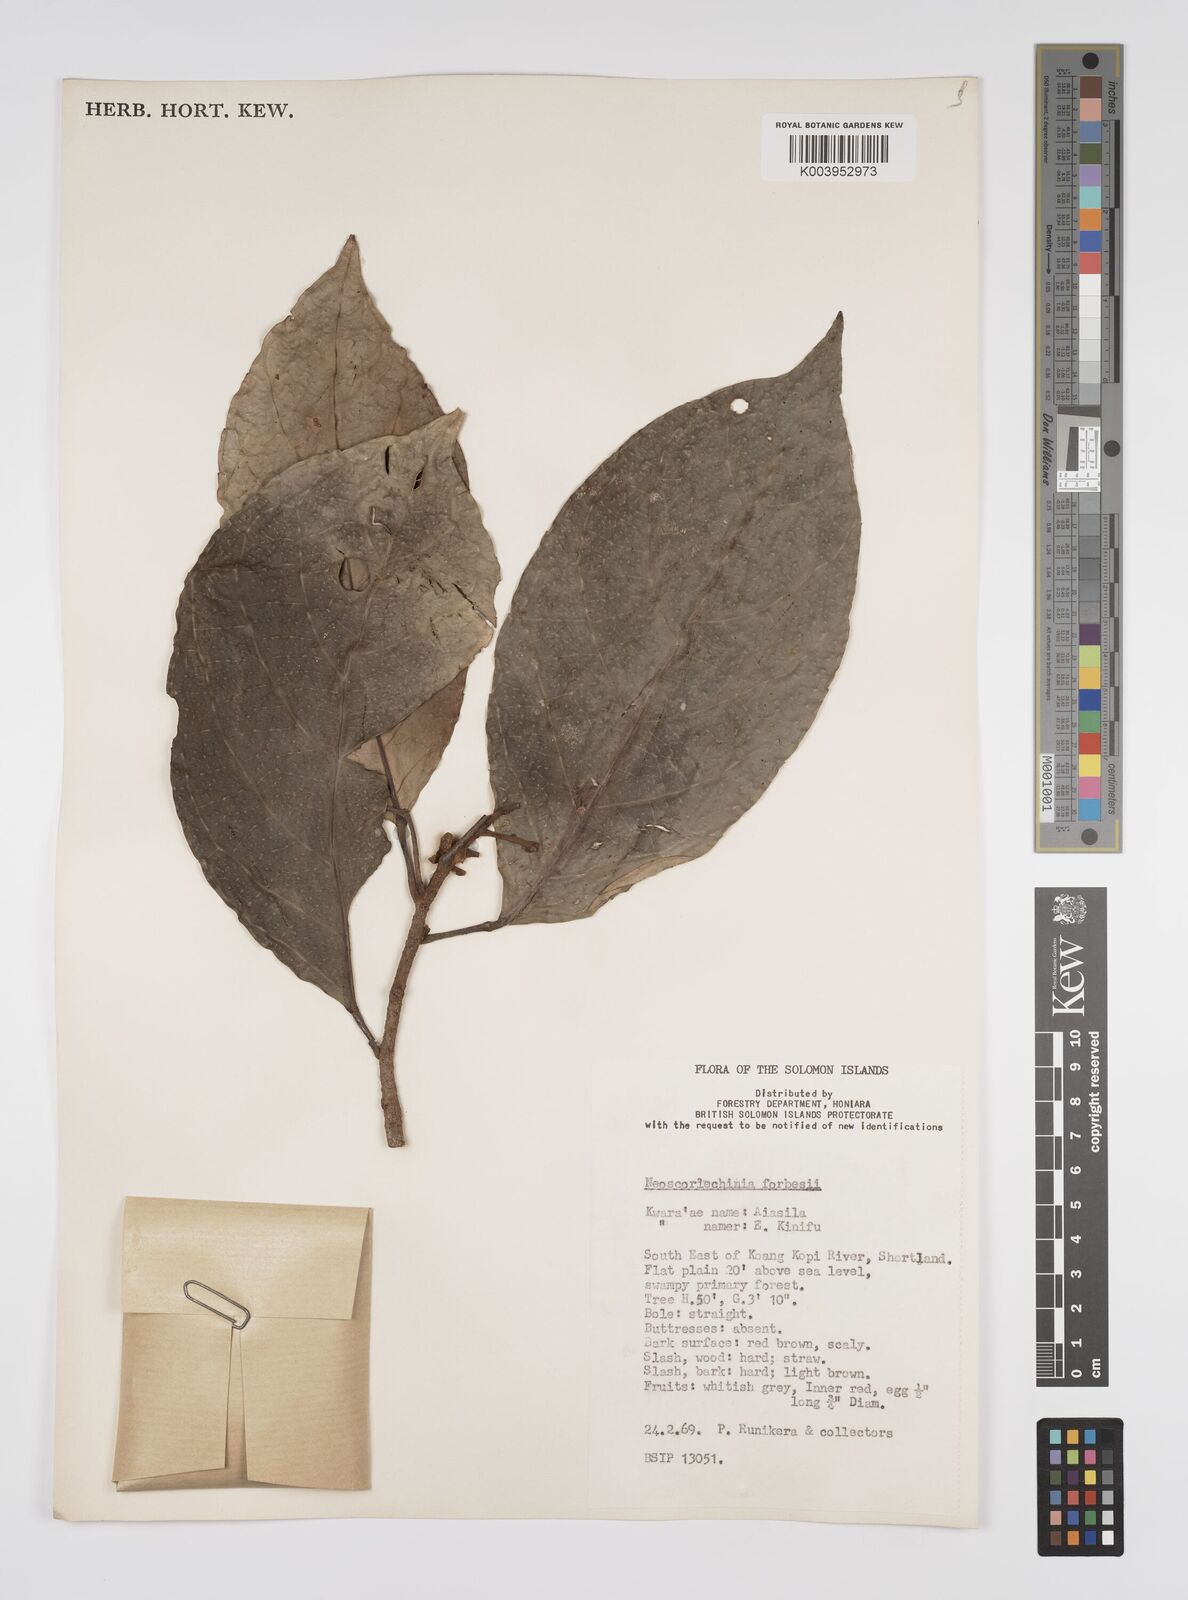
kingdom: Plantae
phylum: Tracheophyta
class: Magnoliopsida
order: Malpighiales
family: Euphorbiaceae
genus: Neoscortechinia
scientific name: Neoscortechinia forbesii
